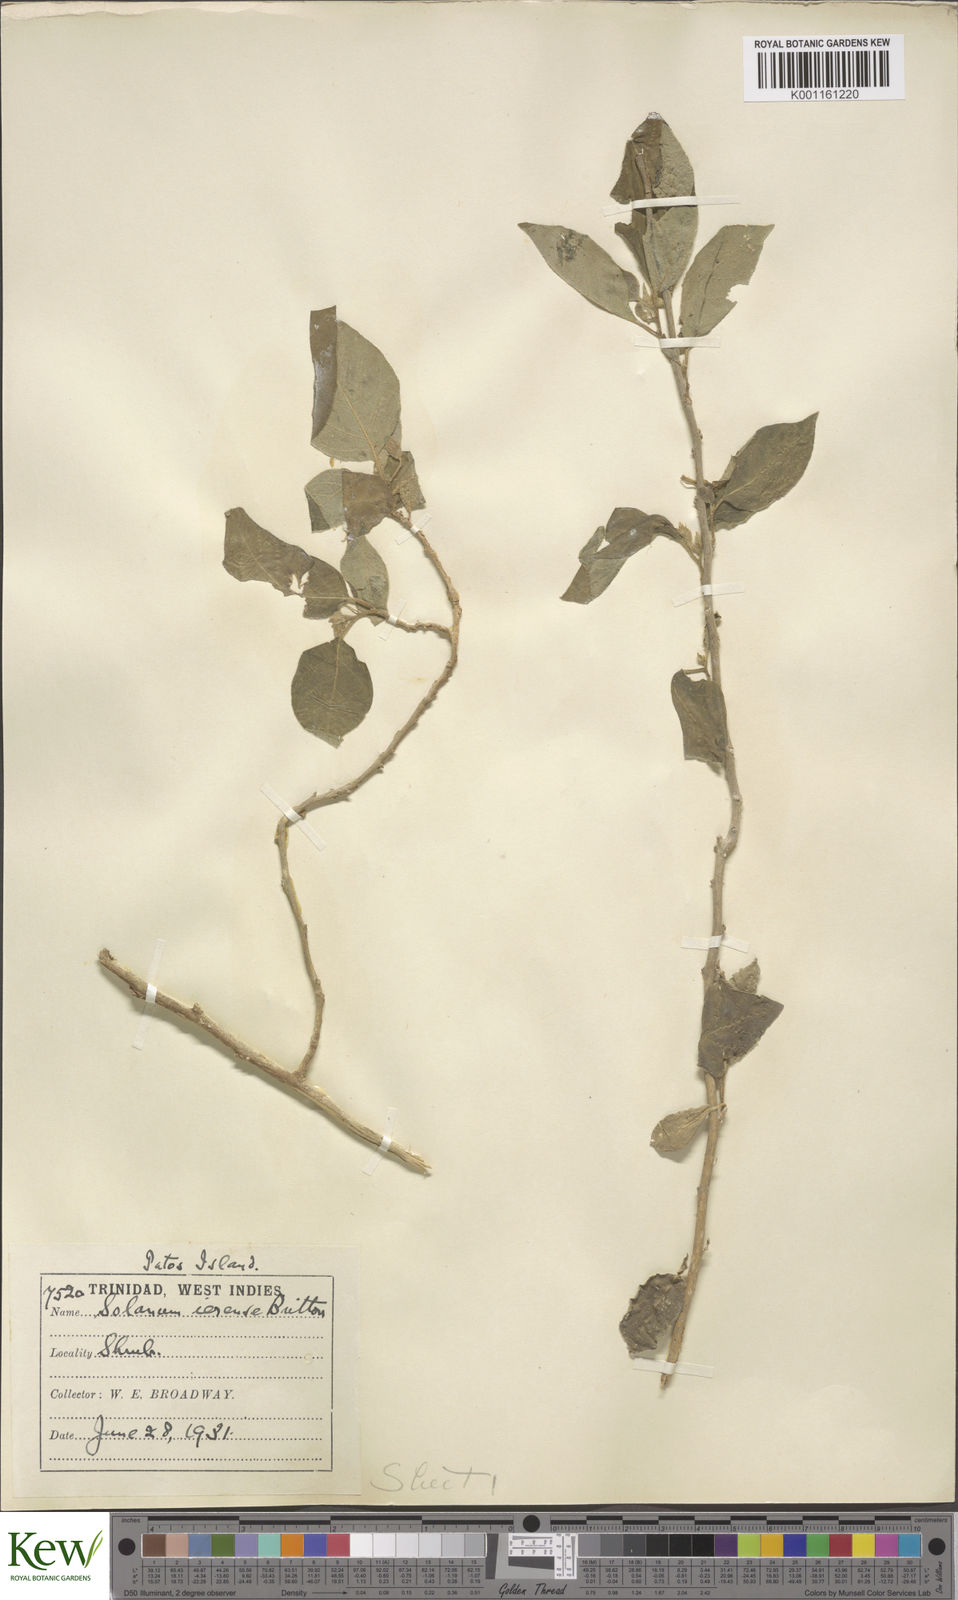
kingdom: Plantae
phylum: Tracheophyta
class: Magnoliopsida
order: Solanales
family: Solanaceae
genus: Solanum
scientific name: Solanum gardneri
